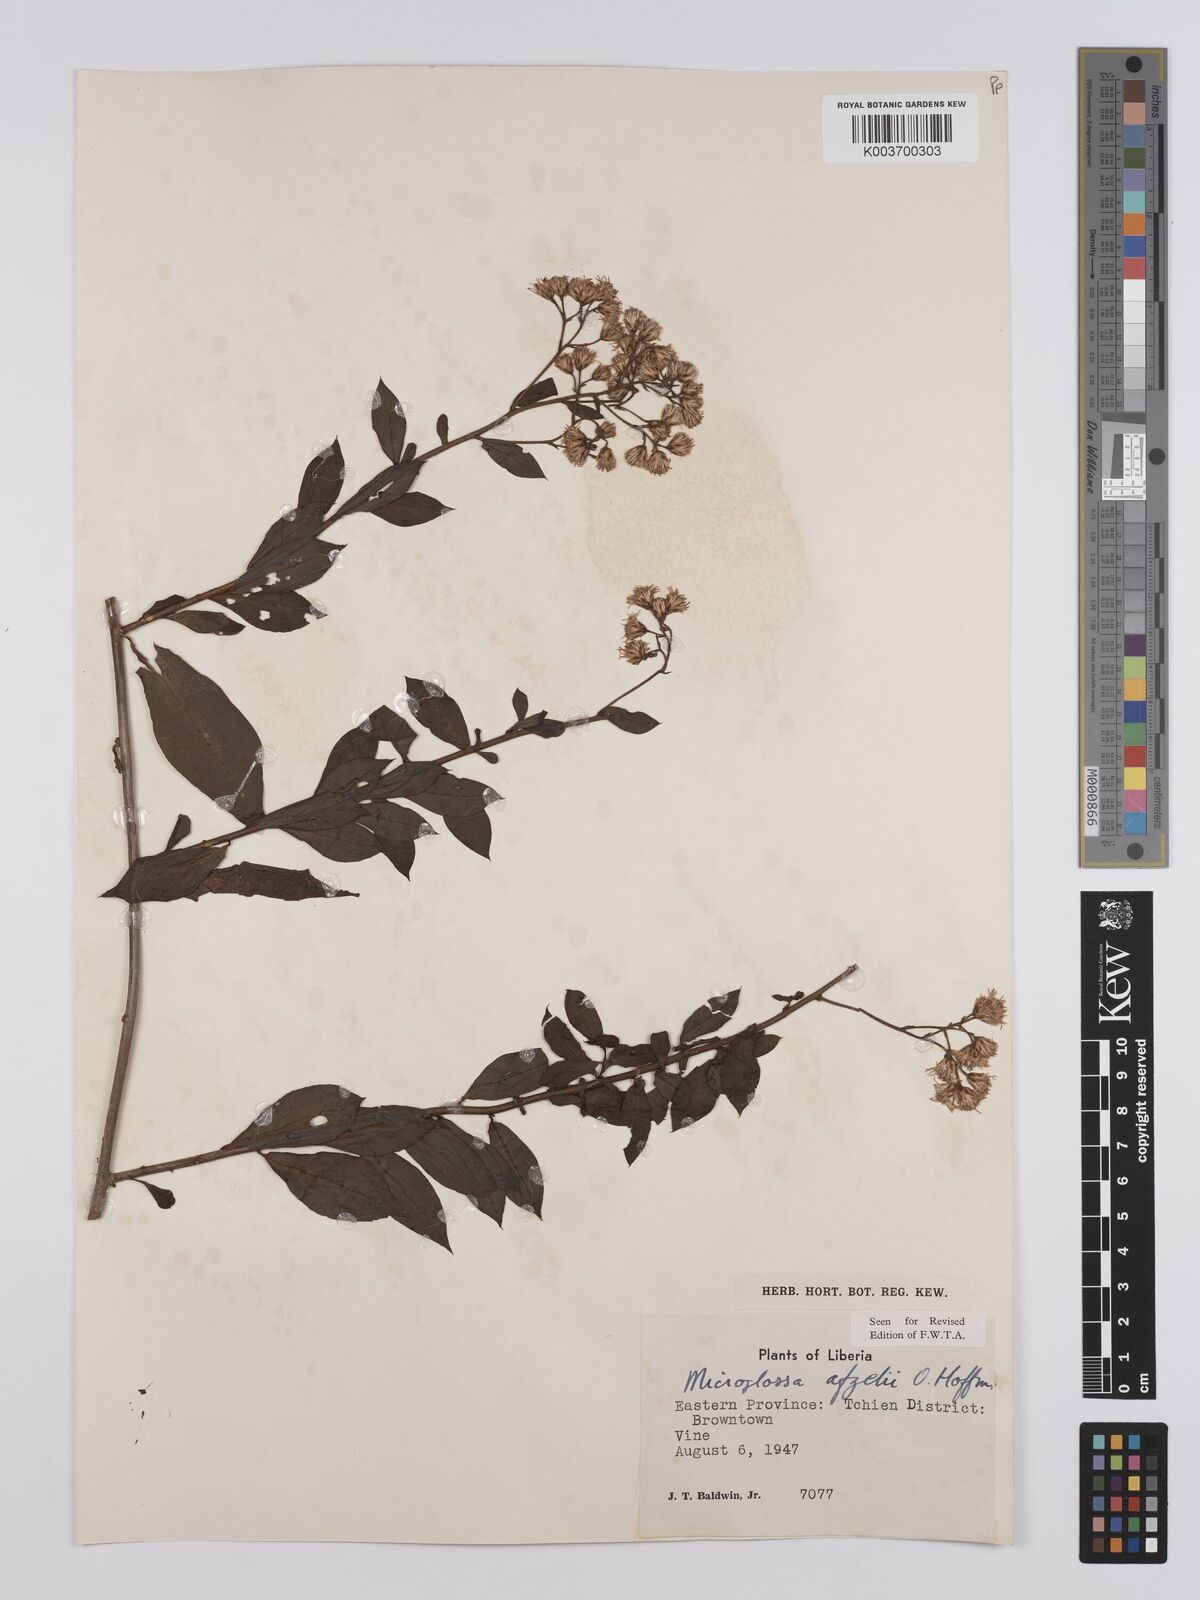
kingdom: Plantae
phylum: Tracheophyta
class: Magnoliopsida
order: Asterales
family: Asteraceae
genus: Microglossa
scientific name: Microglossa afzelii
